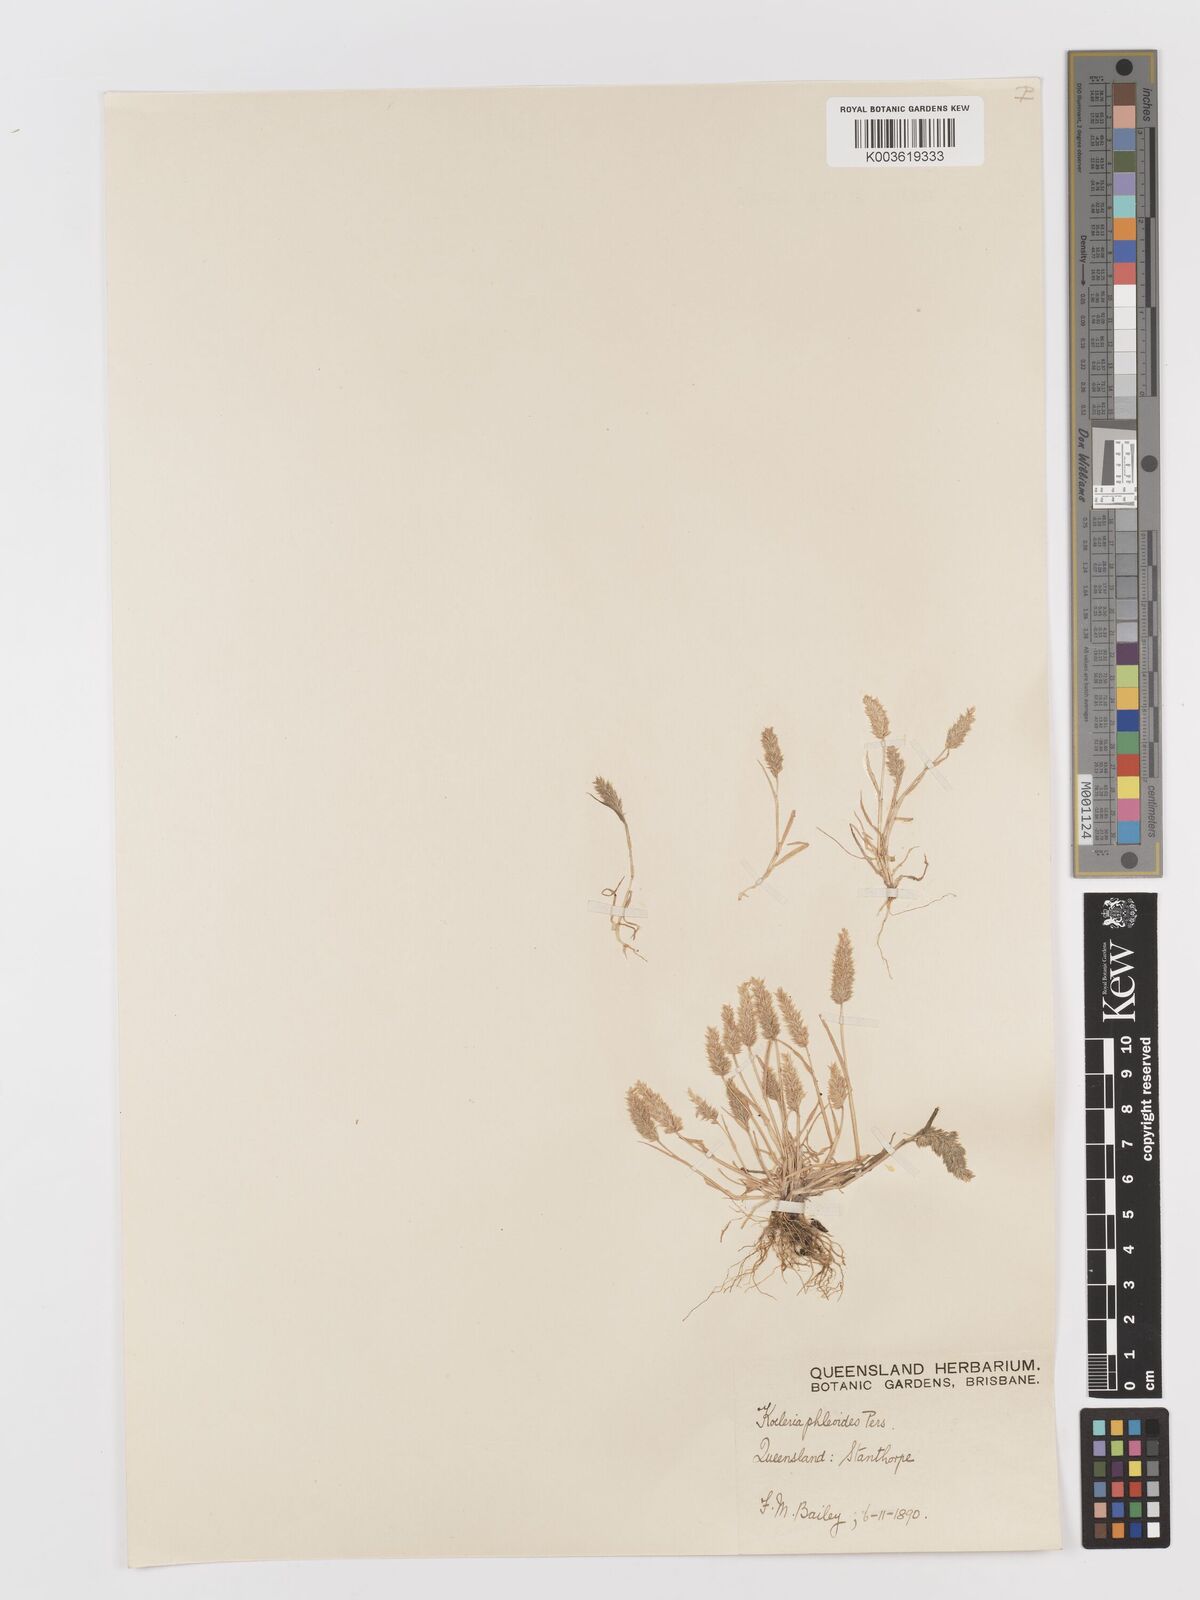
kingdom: Plantae
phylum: Tracheophyta
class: Liliopsida
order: Poales
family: Poaceae
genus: Rostraria
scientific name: Rostraria cristata
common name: Mediterranean hair-grass
